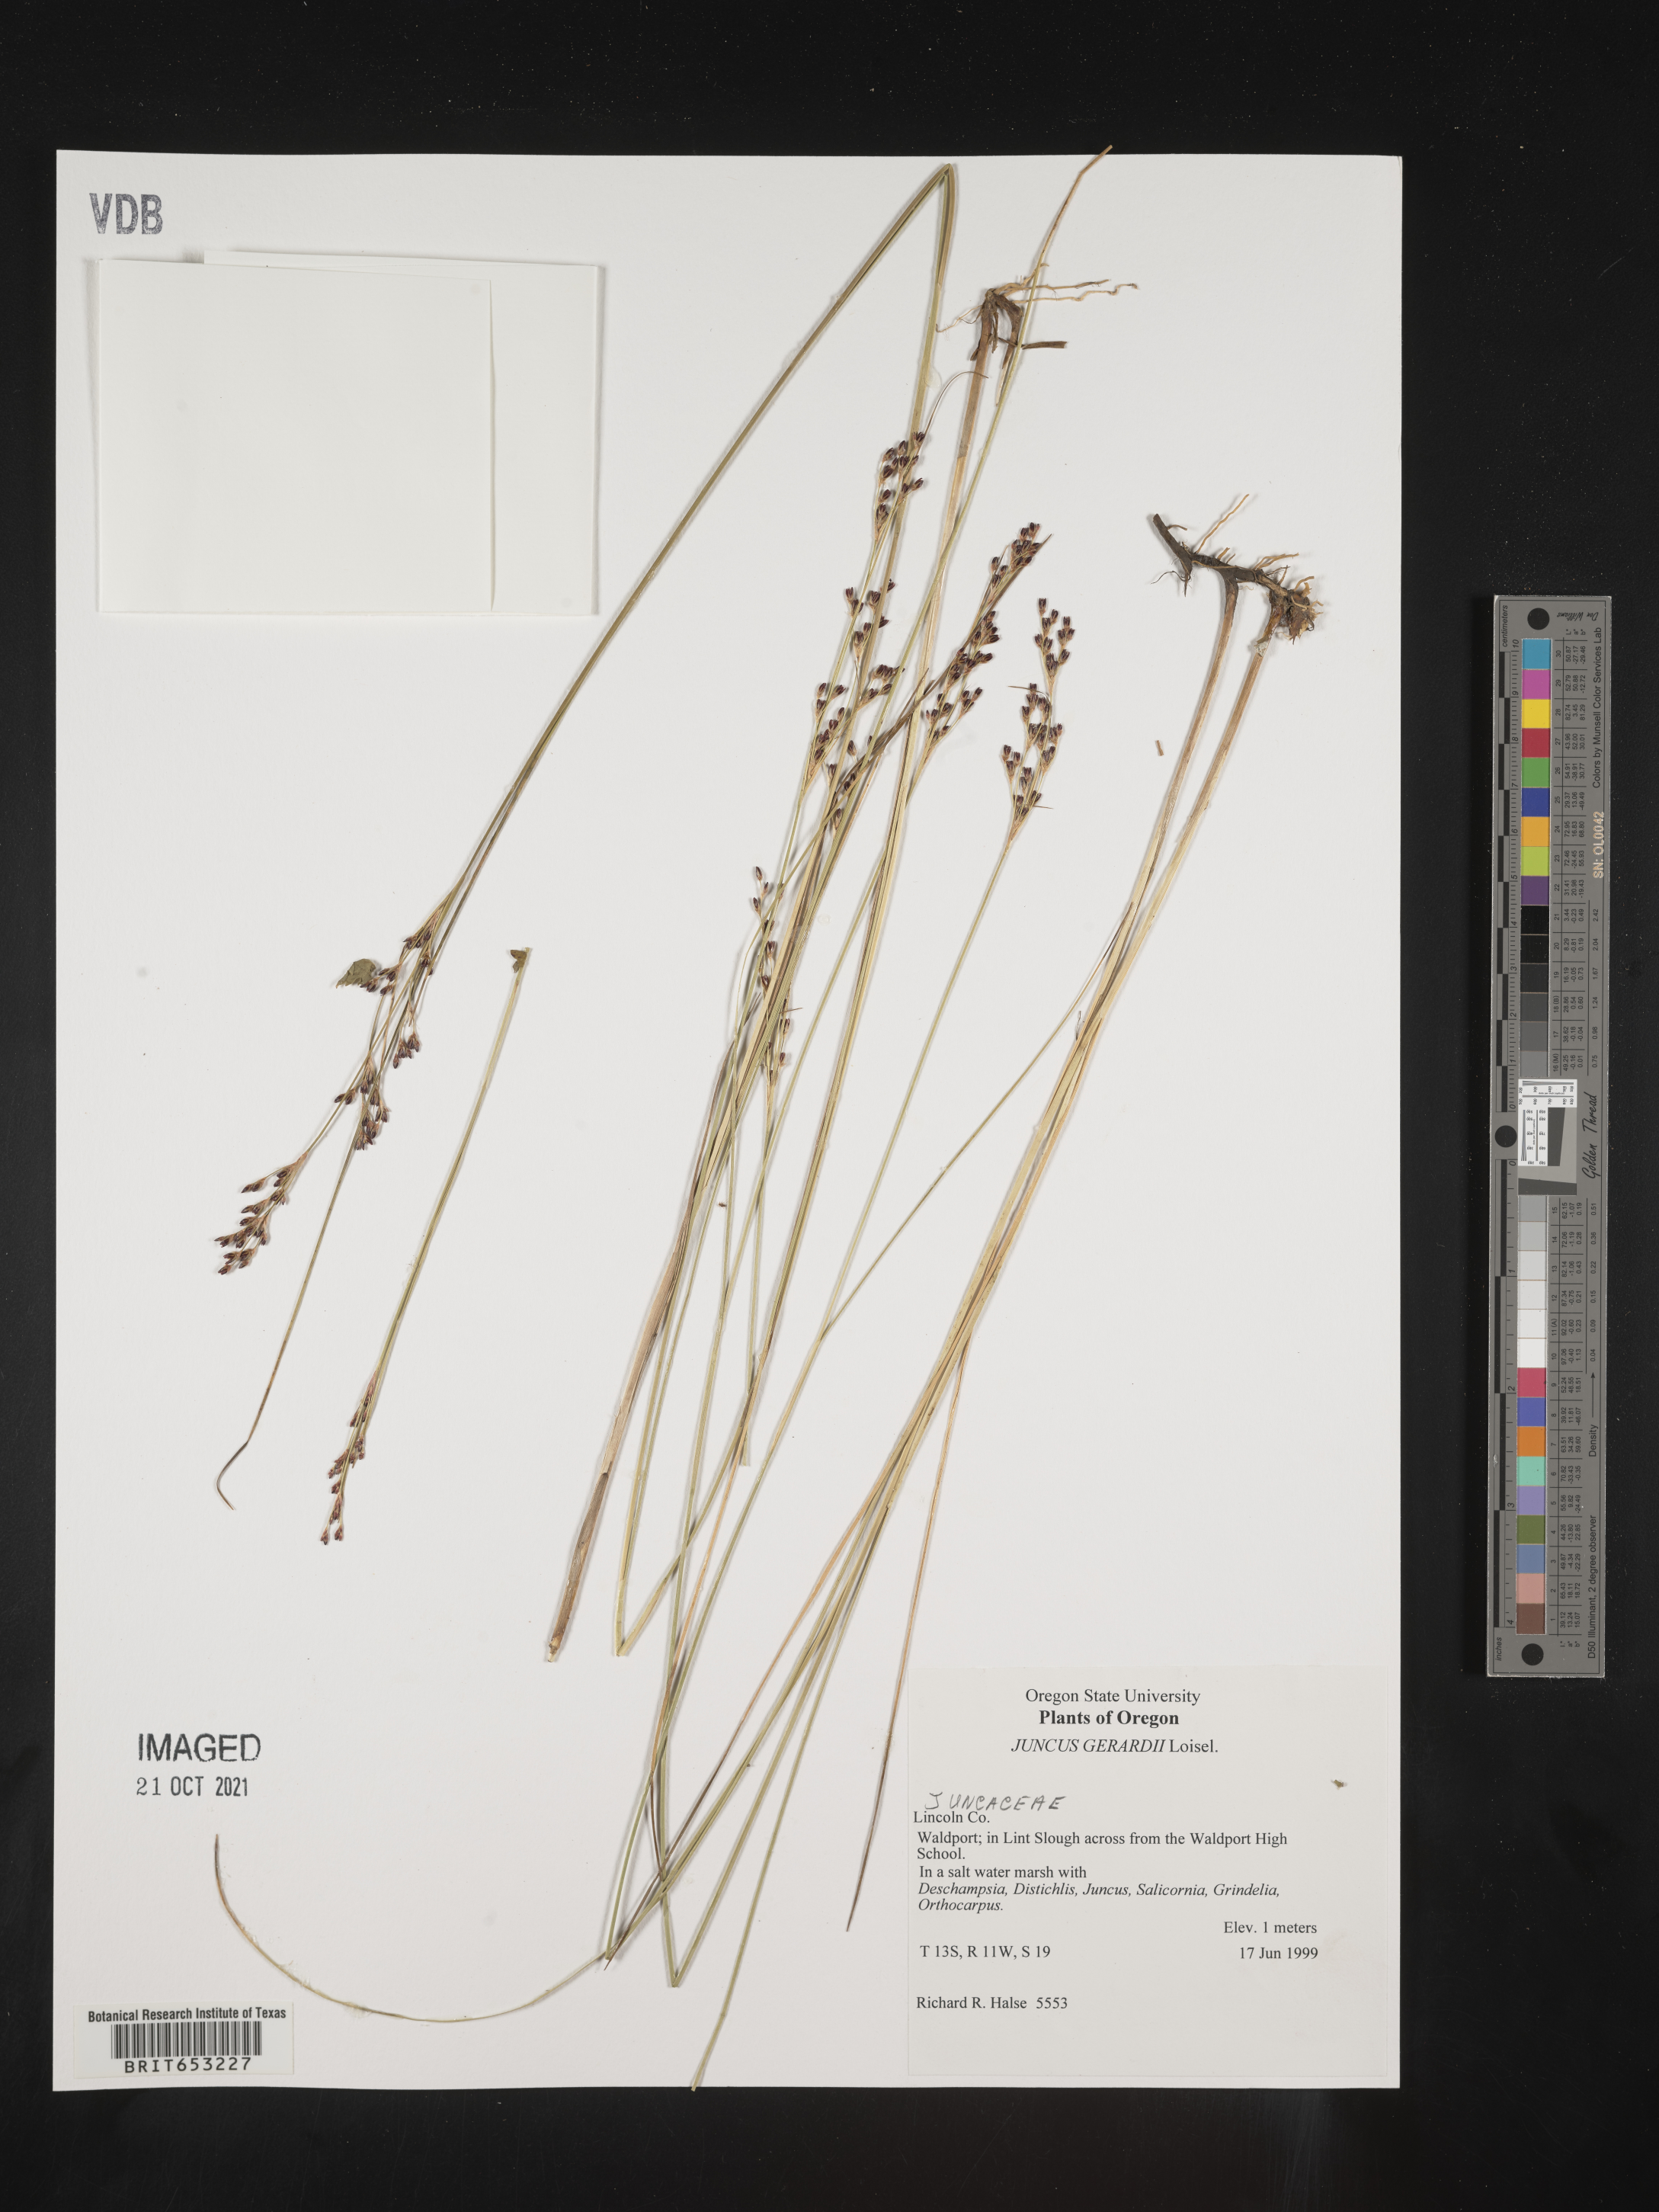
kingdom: Plantae
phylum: Tracheophyta
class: Liliopsida
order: Poales
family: Juncaceae
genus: Juncus
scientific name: Juncus gerardi
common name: Saltmarsh rush
